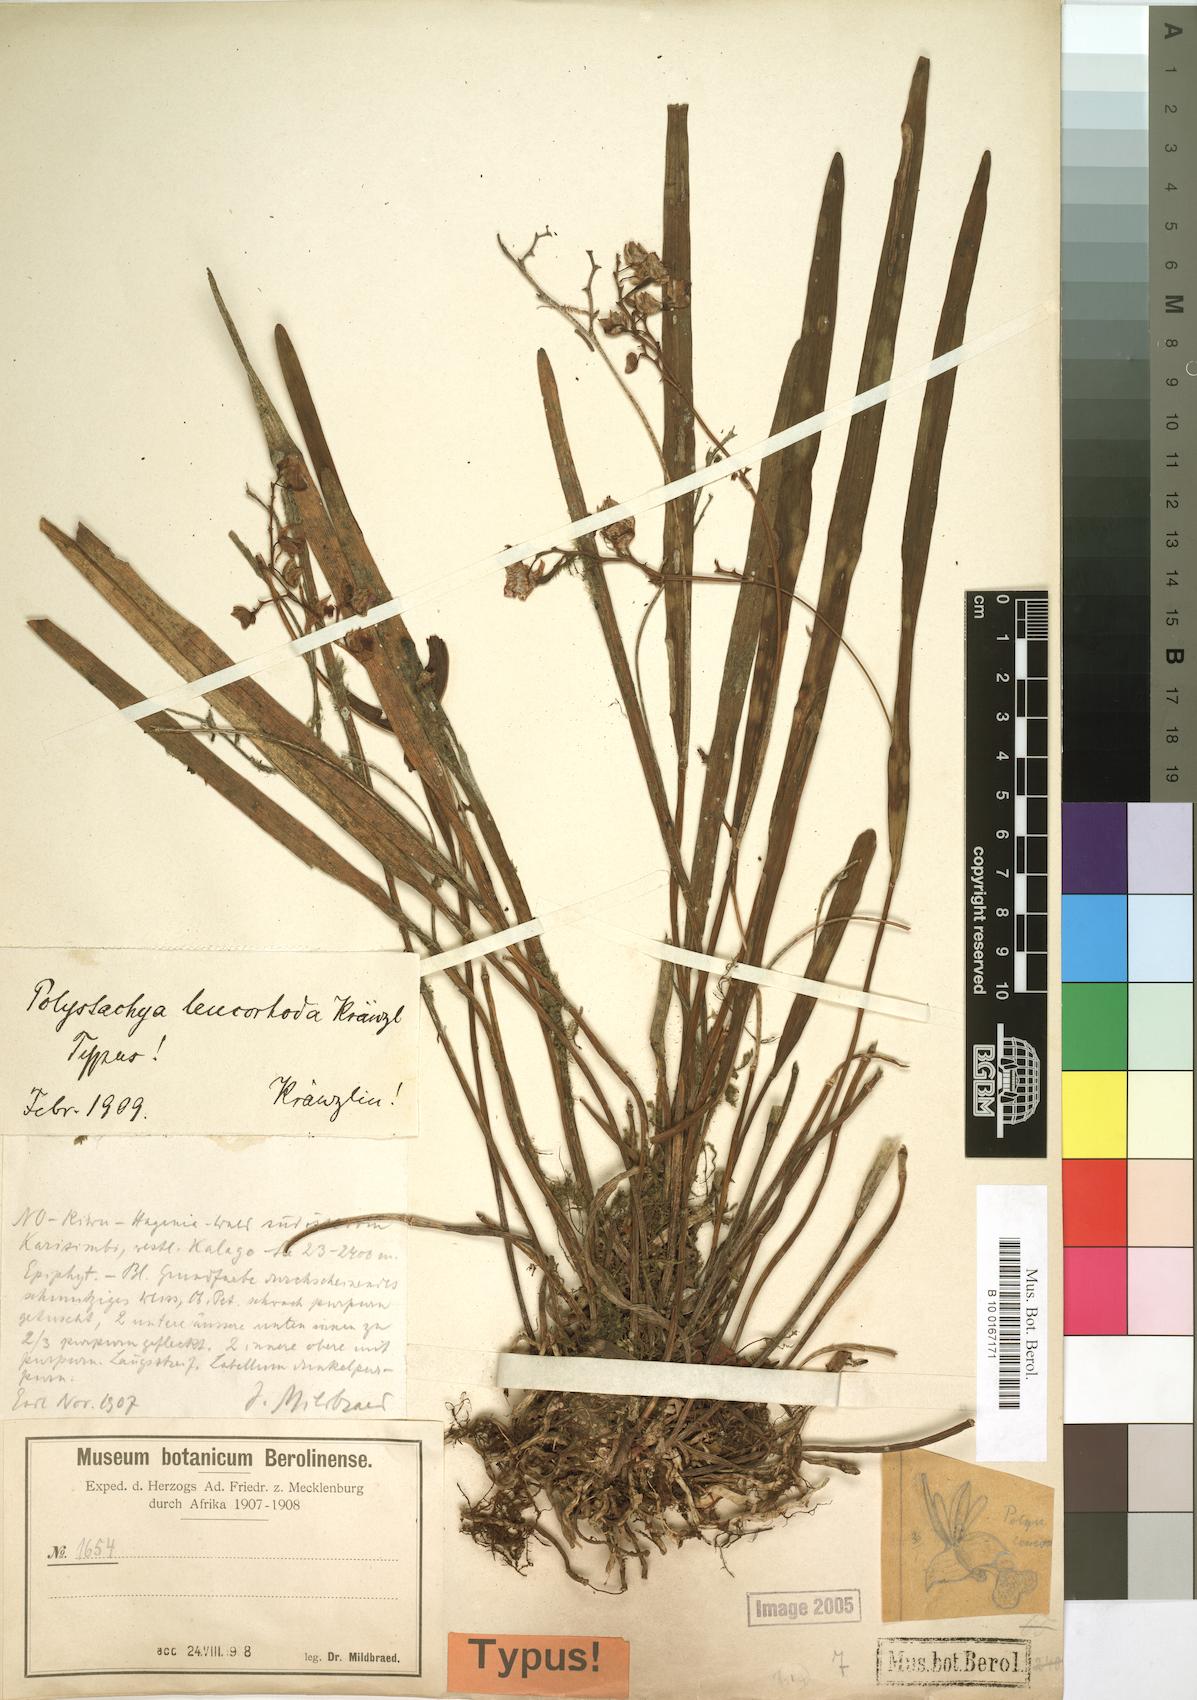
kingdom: Plantae
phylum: Tracheophyta
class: Liliopsida
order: Asparagales
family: Orchidaceae
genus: Polystachya
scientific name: Polystachya poikilantha
